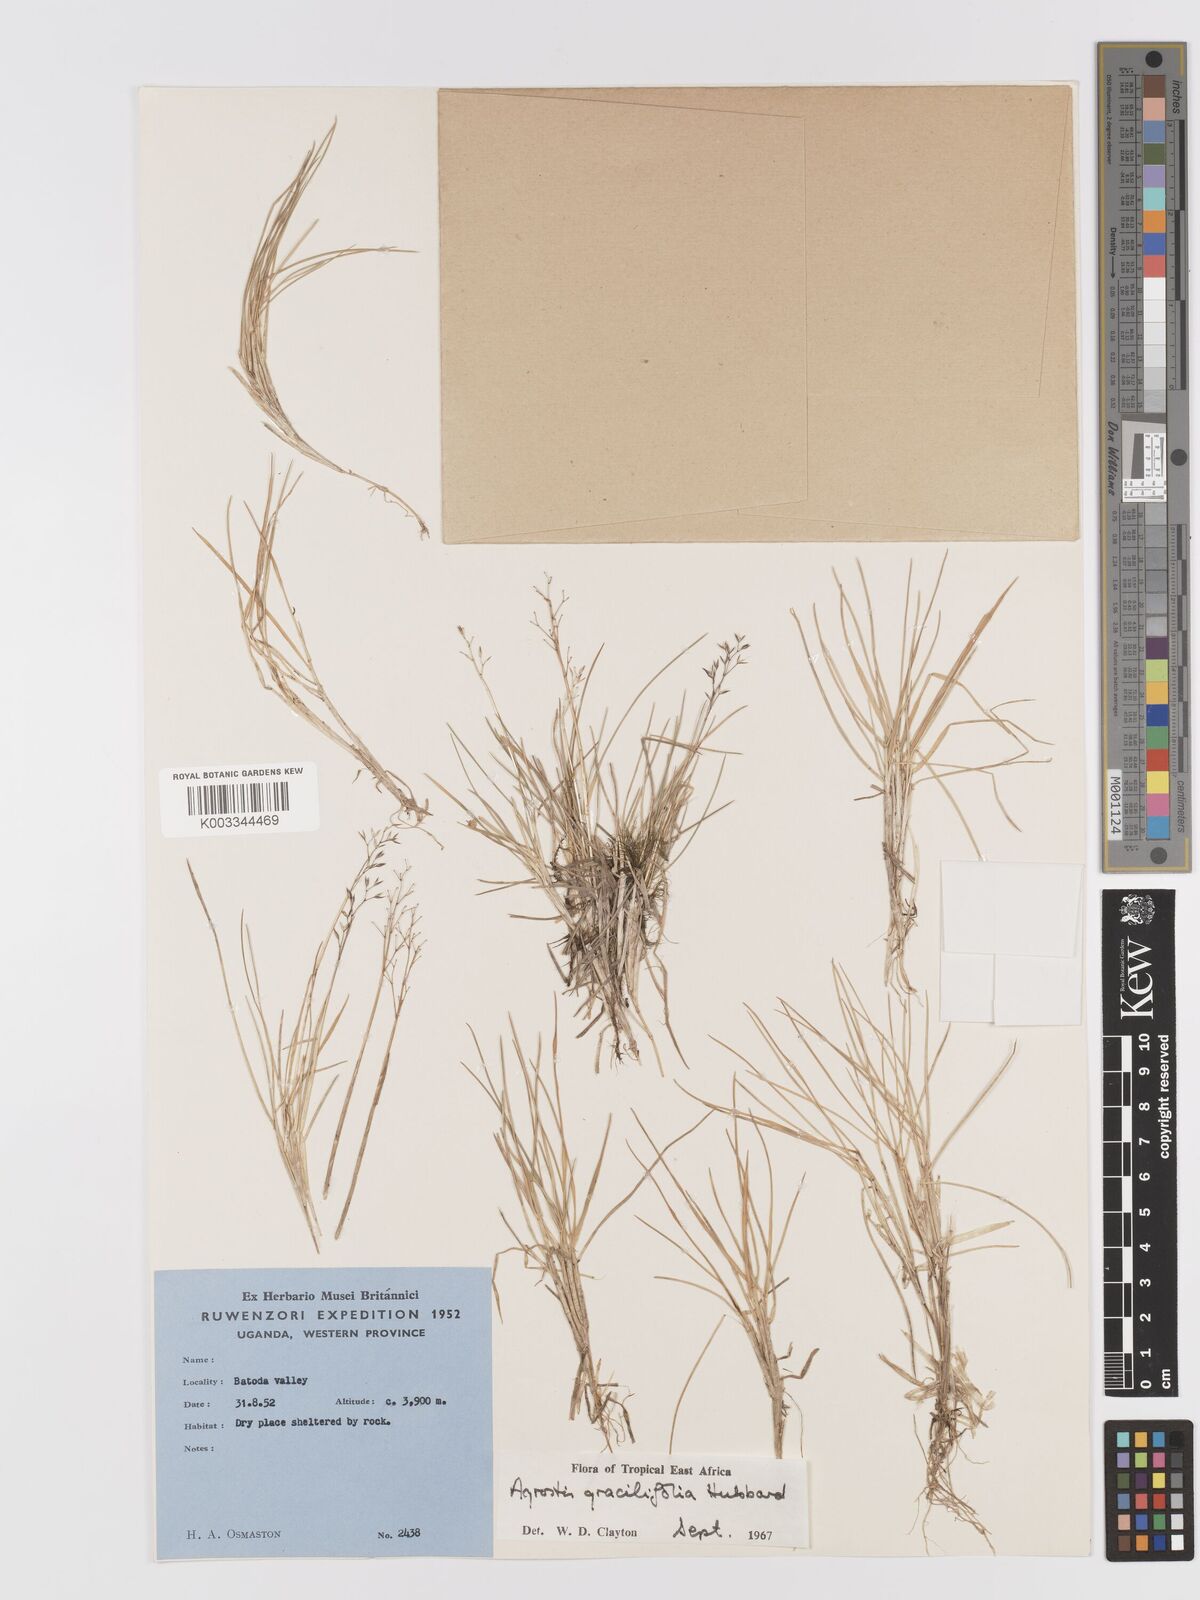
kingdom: Plantae
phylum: Tracheophyta
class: Liliopsida
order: Poales
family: Poaceae
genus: Agrostis
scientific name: Agrostis gracilifolia
